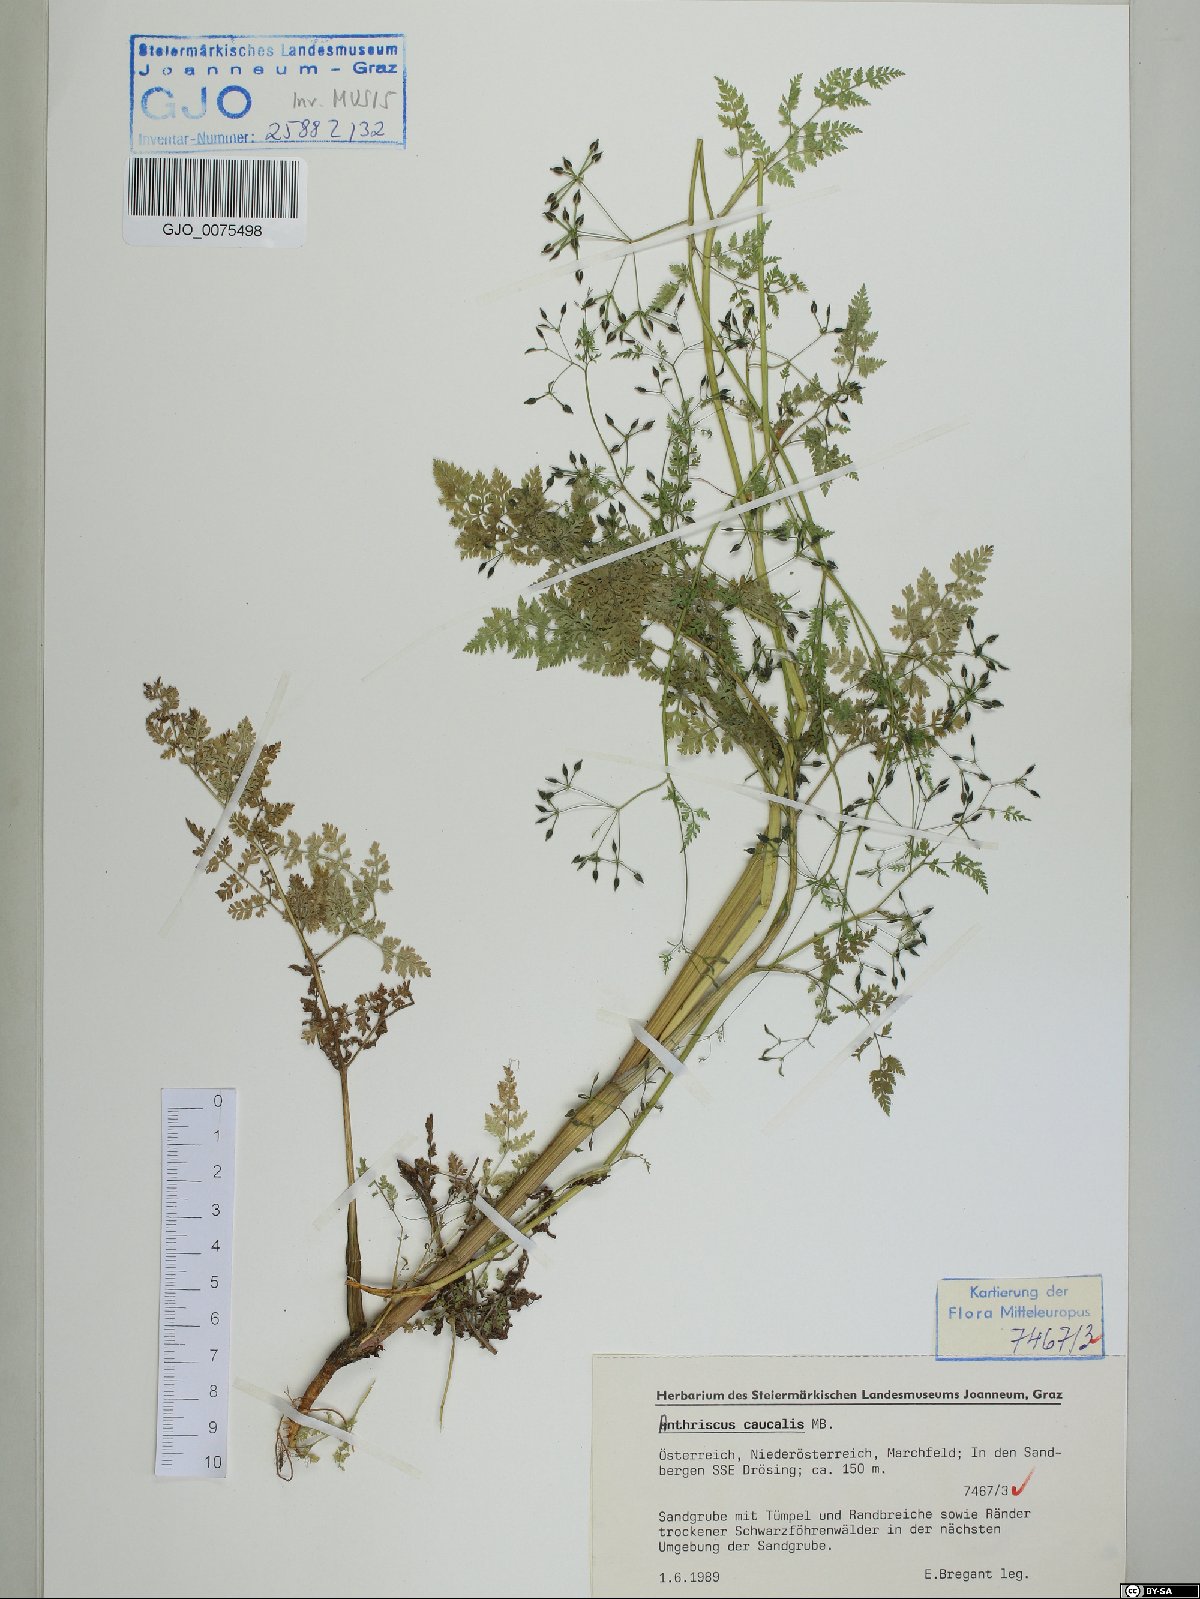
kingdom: Plantae
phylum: Tracheophyta
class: Magnoliopsida
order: Apiales
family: Apiaceae
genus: Anthriscus
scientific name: Anthriscus caucalis
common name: Bur chervil
